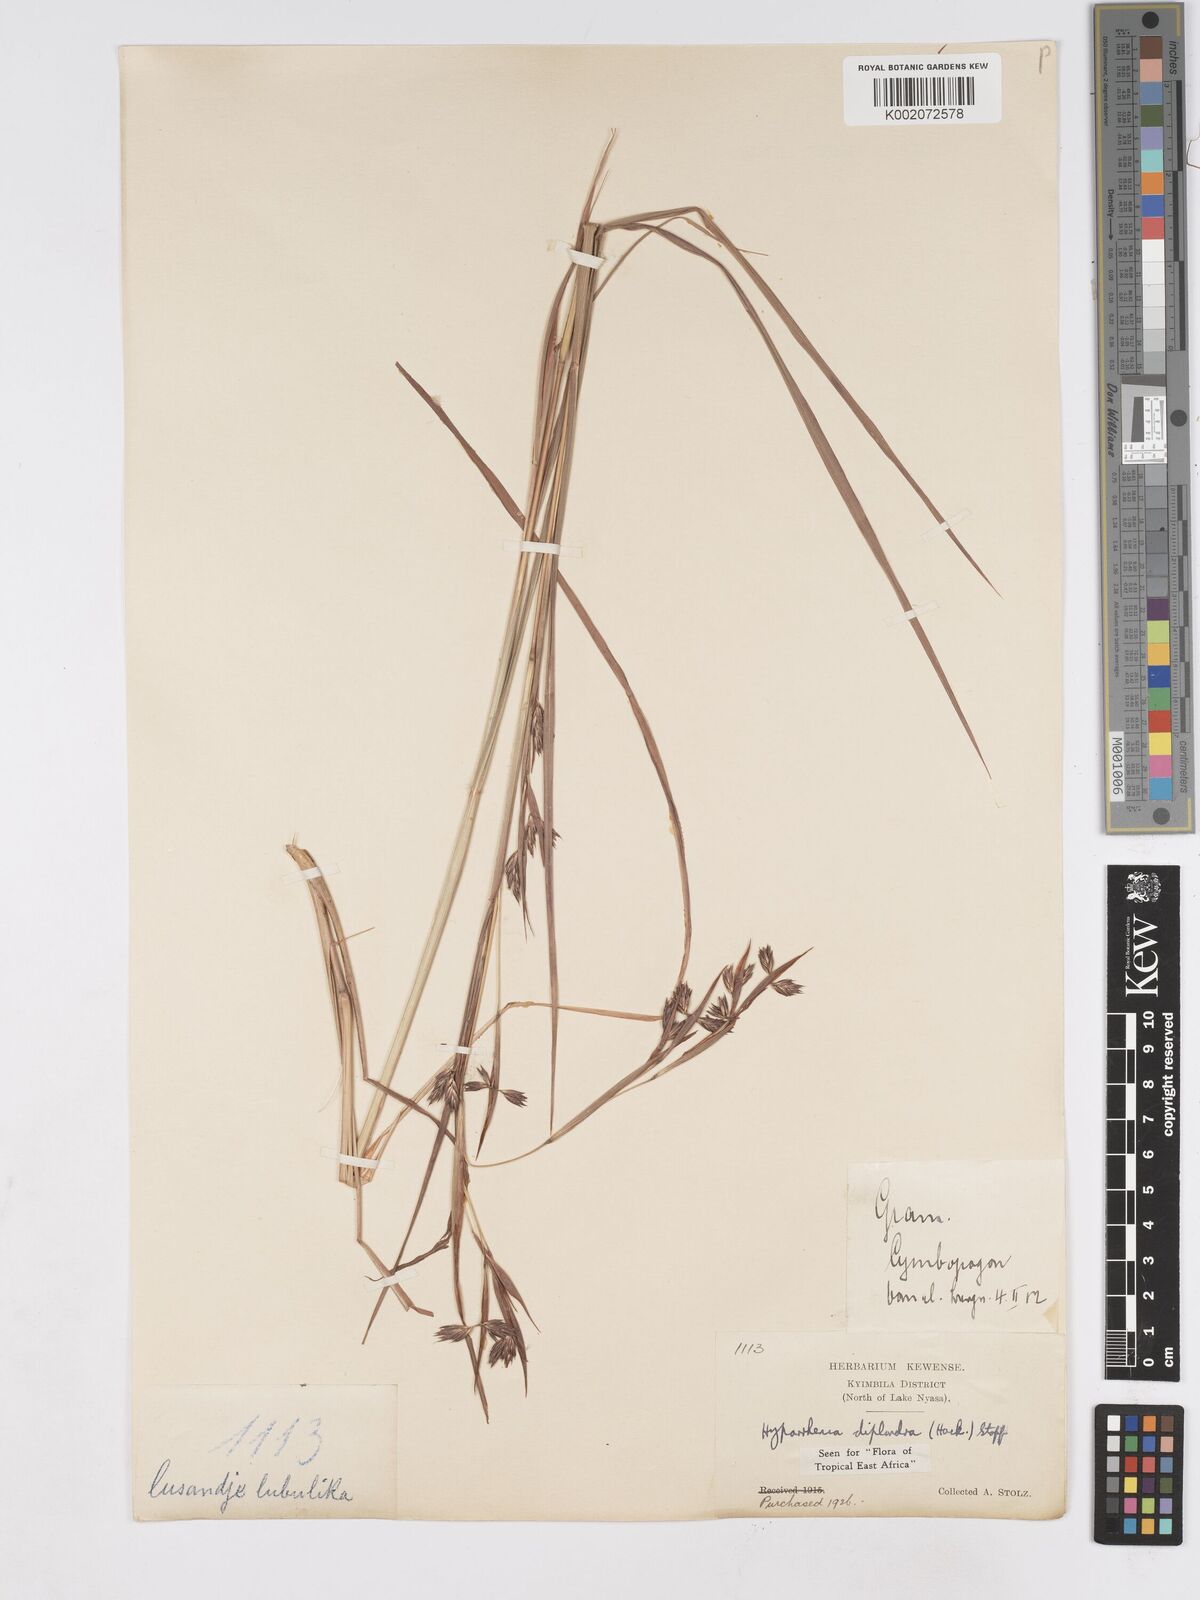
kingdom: Plantae
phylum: Tracheophyta
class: Liliopsida
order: Poales
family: Poaceae
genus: Hyparrhenia
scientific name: Hyparrhenia diplandra
